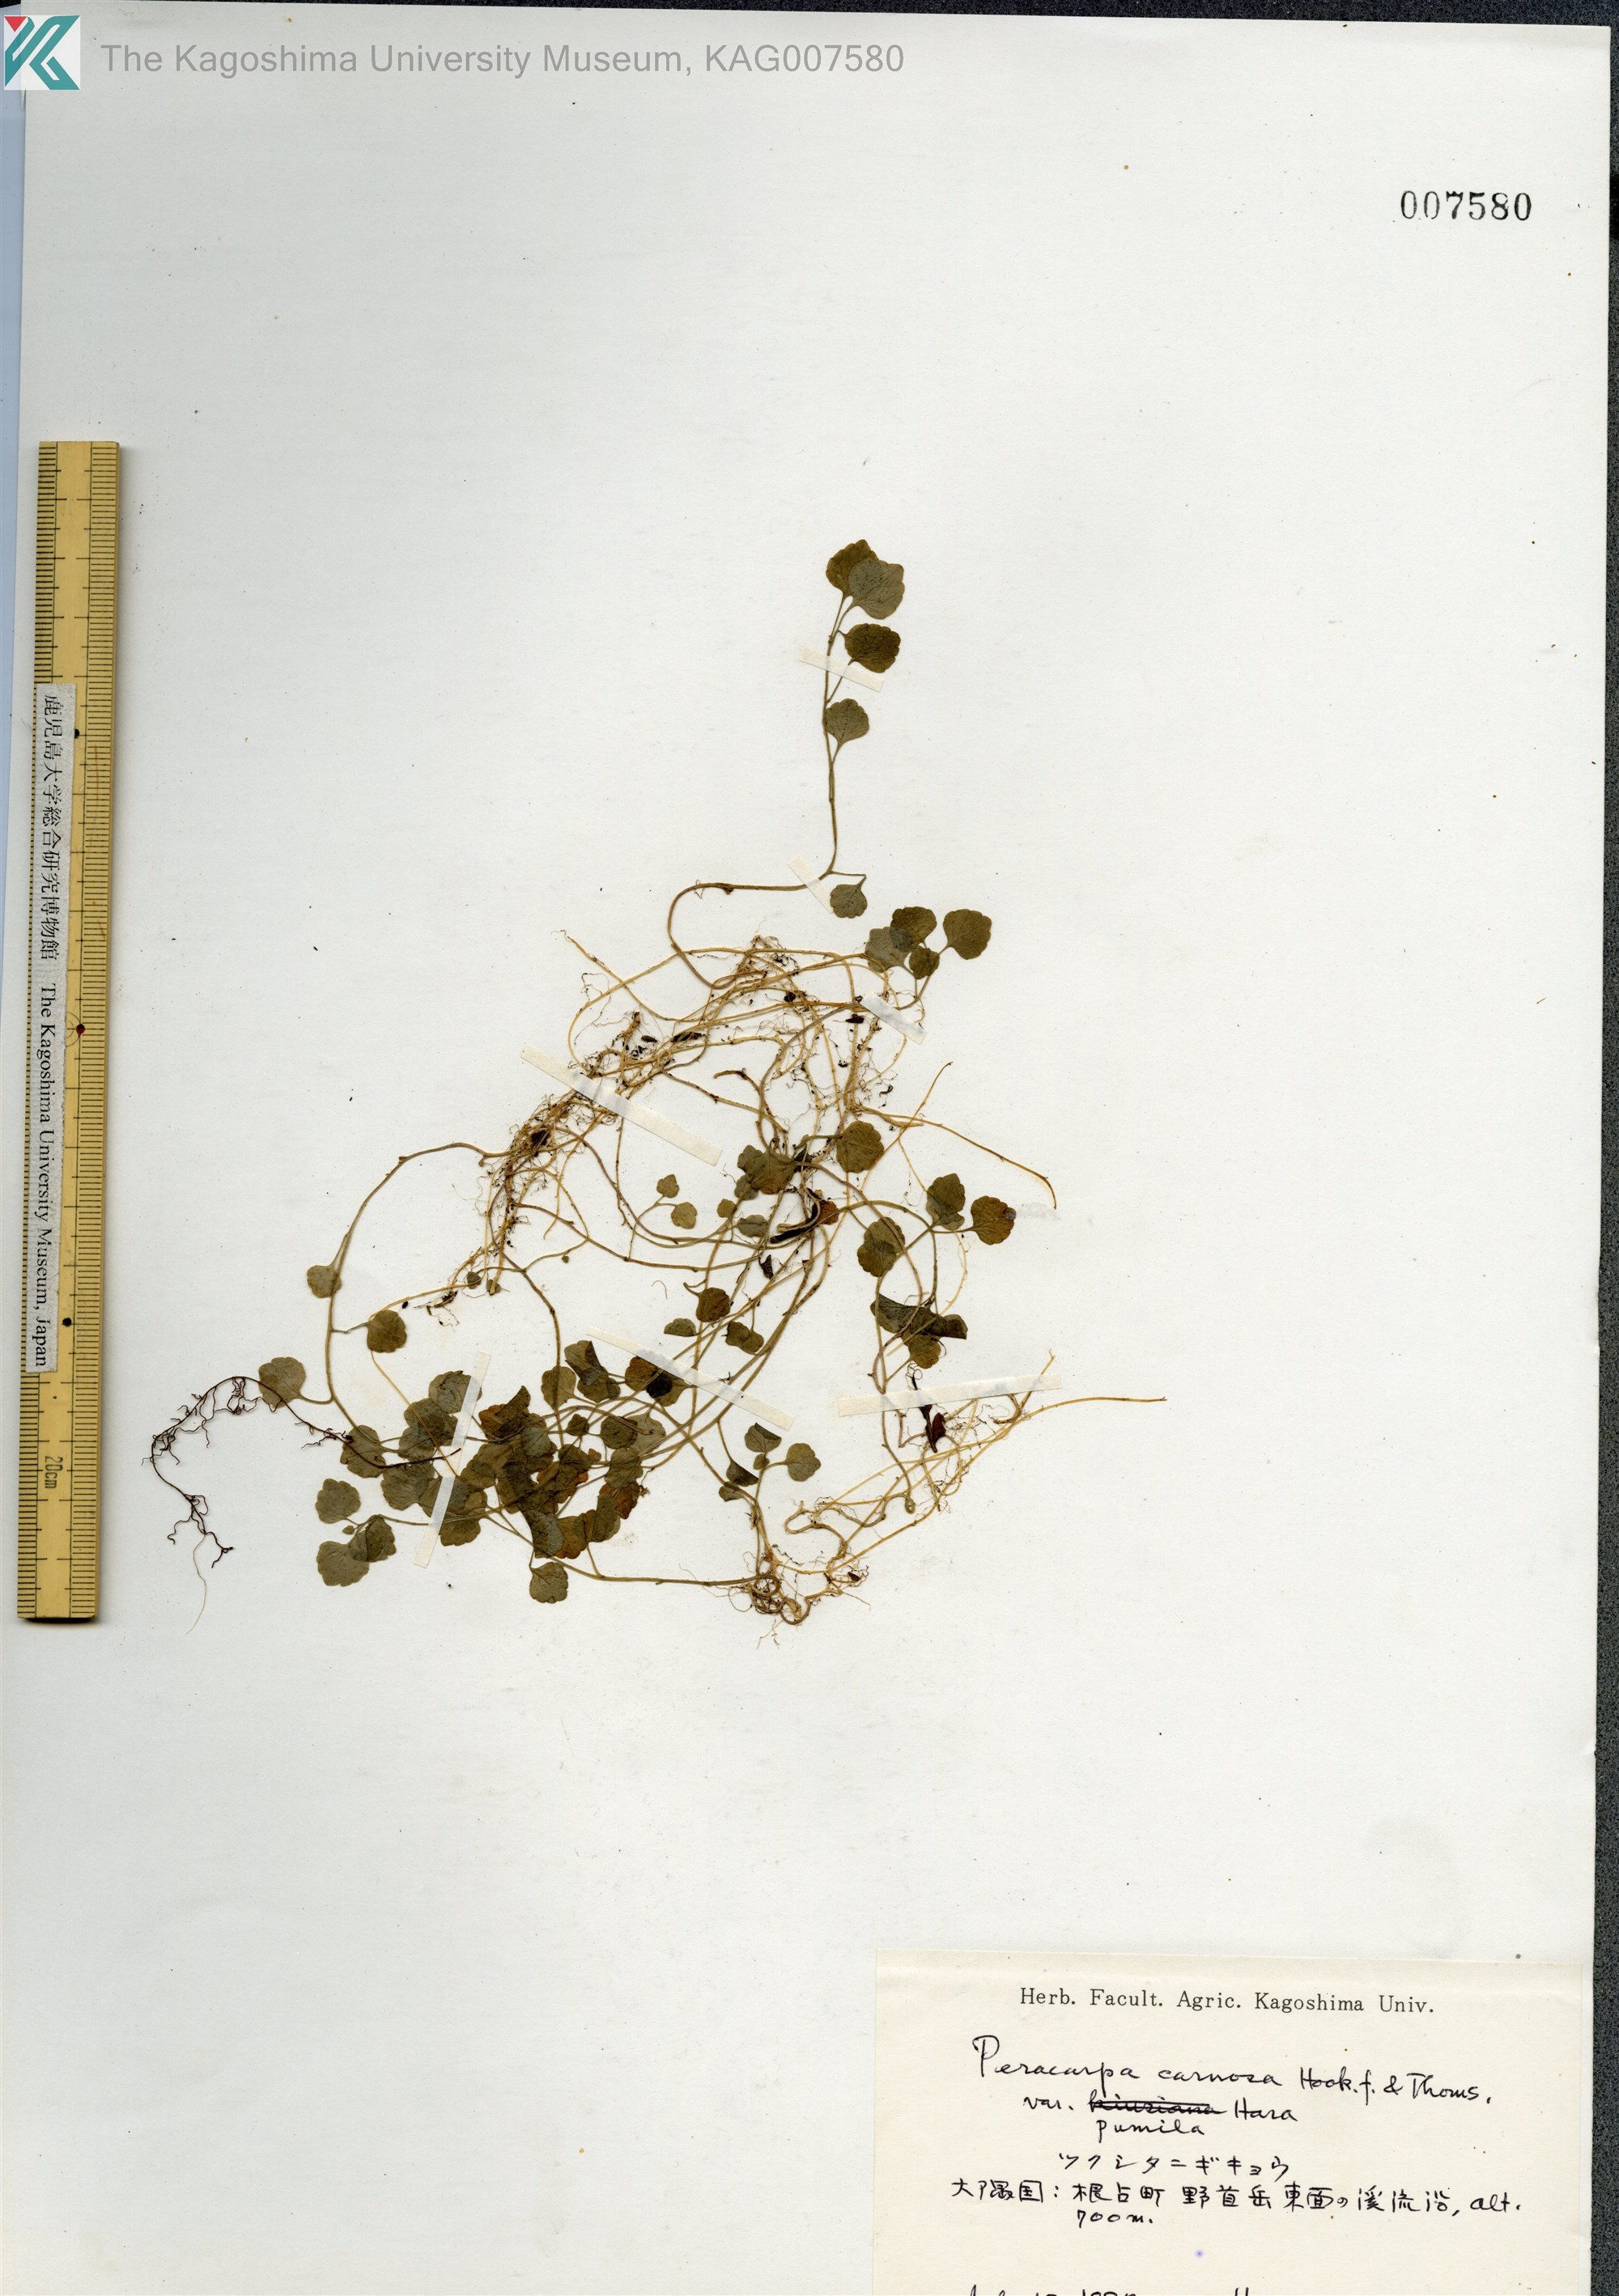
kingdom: Plantae
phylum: Tracheophyta
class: Magnoliopsida
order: Asterales
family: Campanulaceae
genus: Peracarpa
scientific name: Peracarpa carnosa
